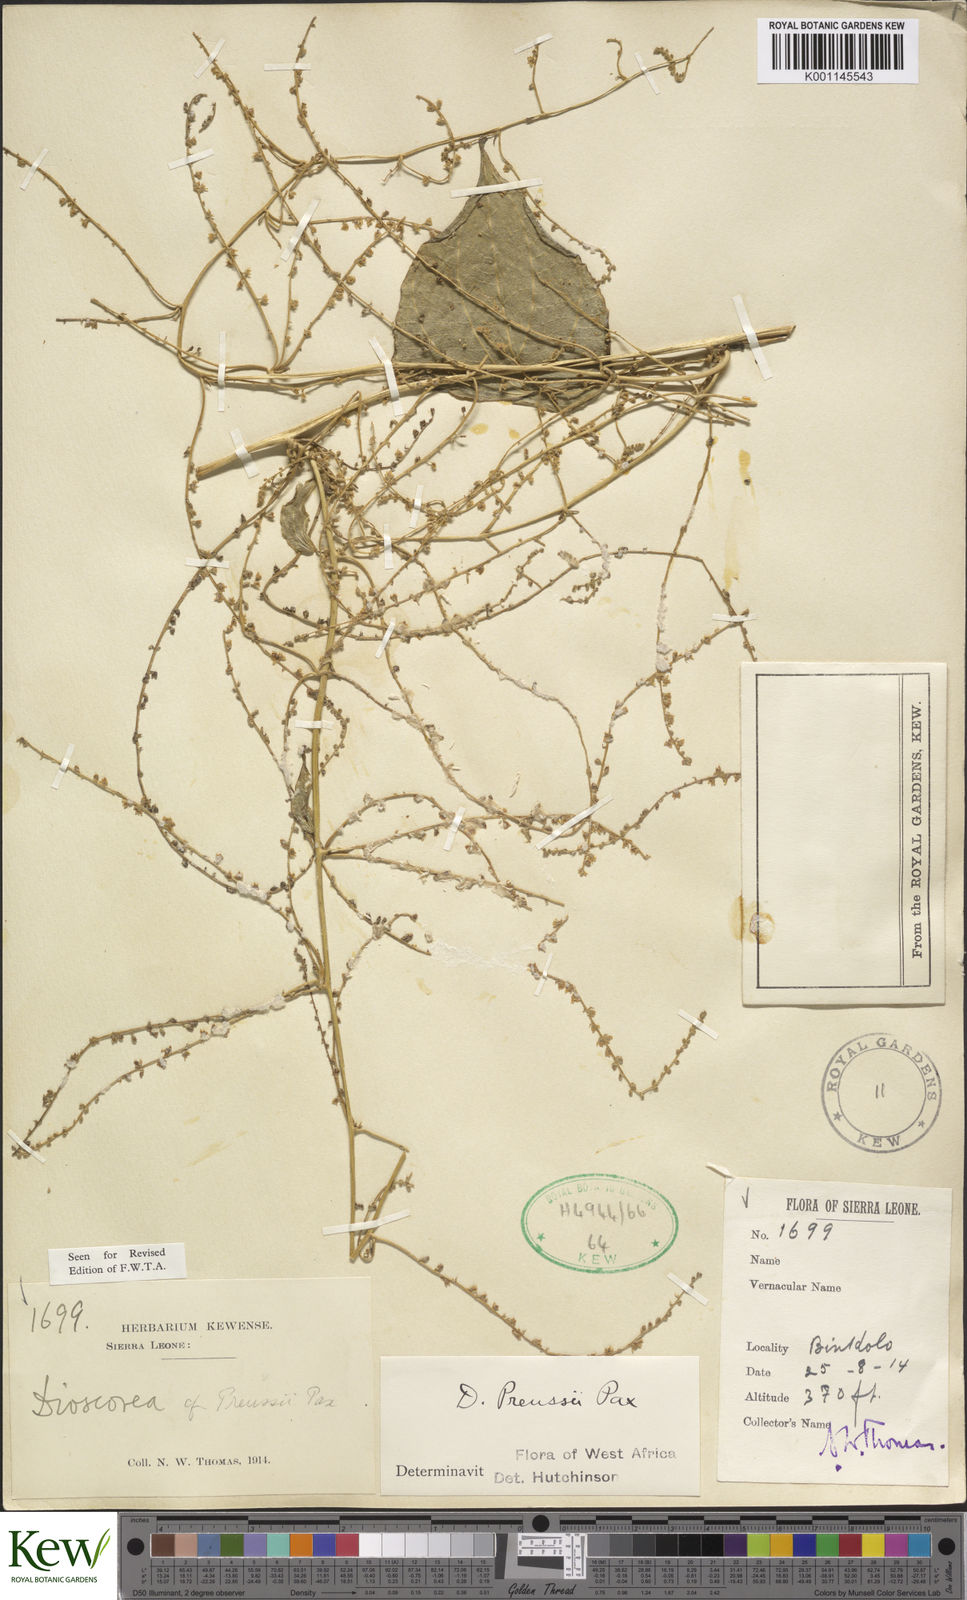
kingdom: Plantae
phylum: Tracheophyta
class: Liliopsida
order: Dioscoreales
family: Dioscoreaceae
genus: Dioscorea
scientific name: Dioscorea preussii
